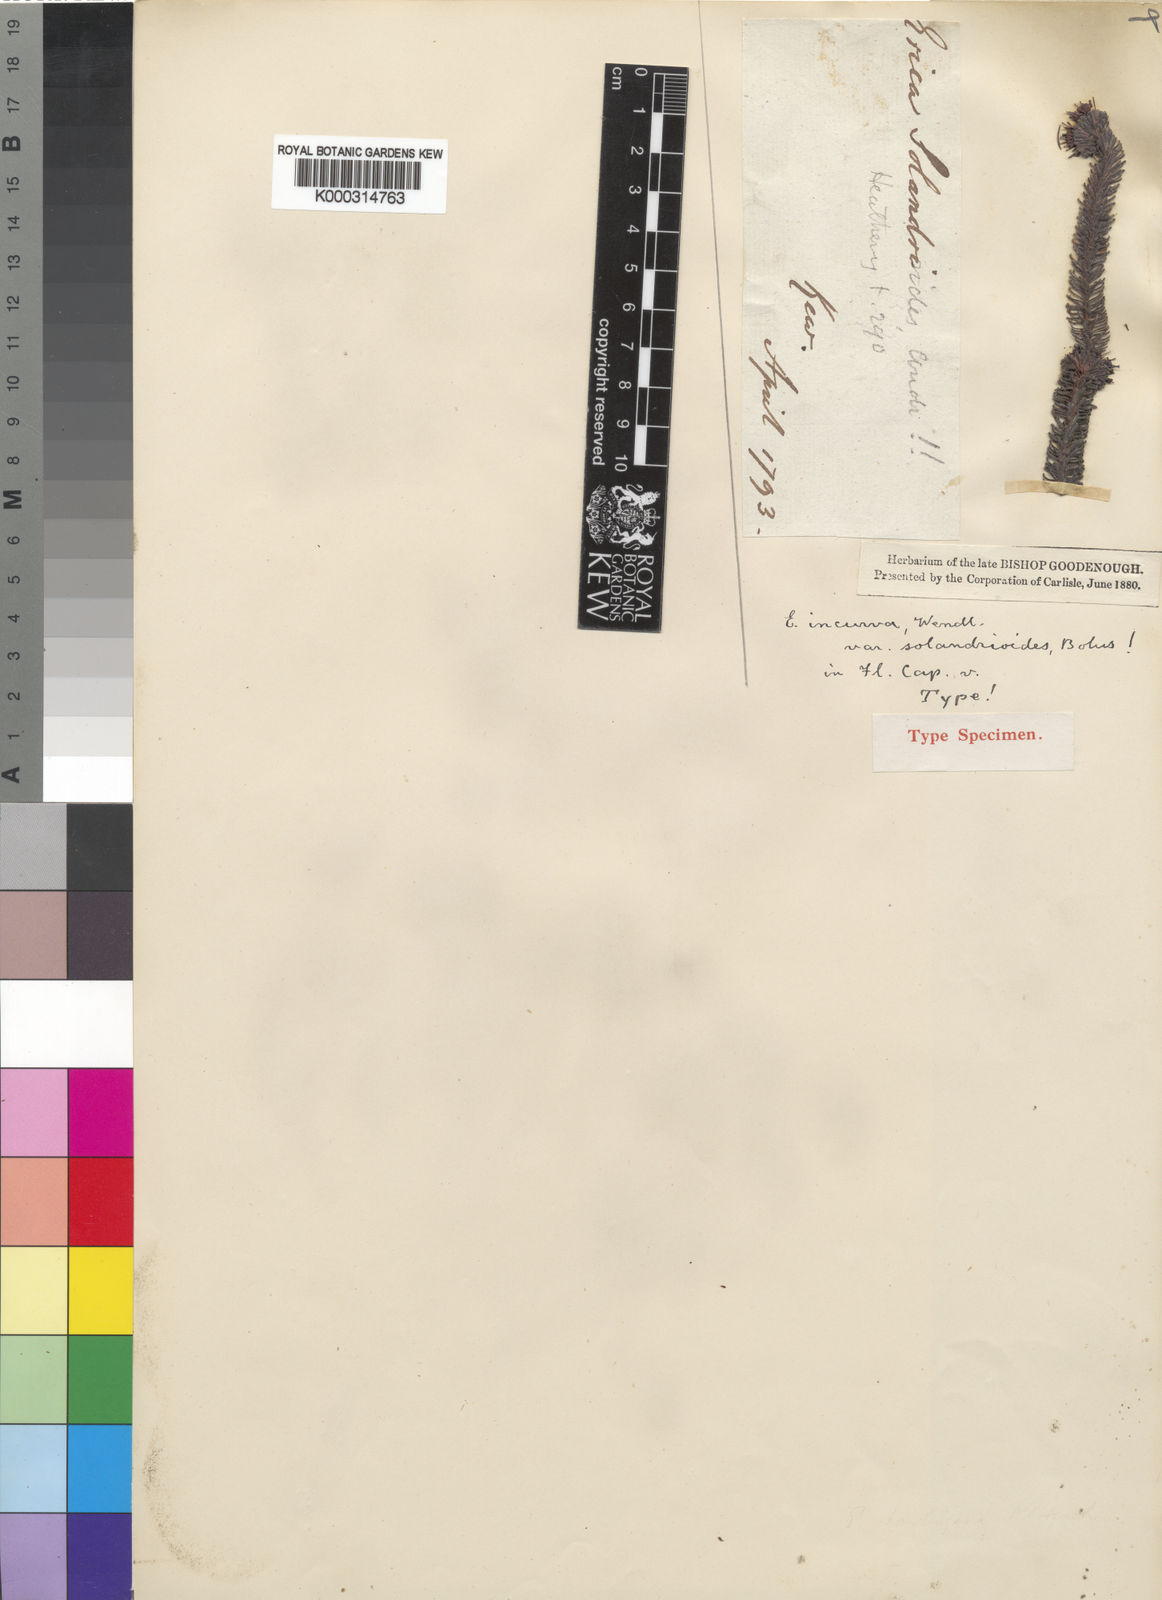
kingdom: Plantae
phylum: Tracheophyta
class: Magnoliopsida
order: Ericales
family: Ericaceae
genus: Erica
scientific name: Erica bruniifolia
